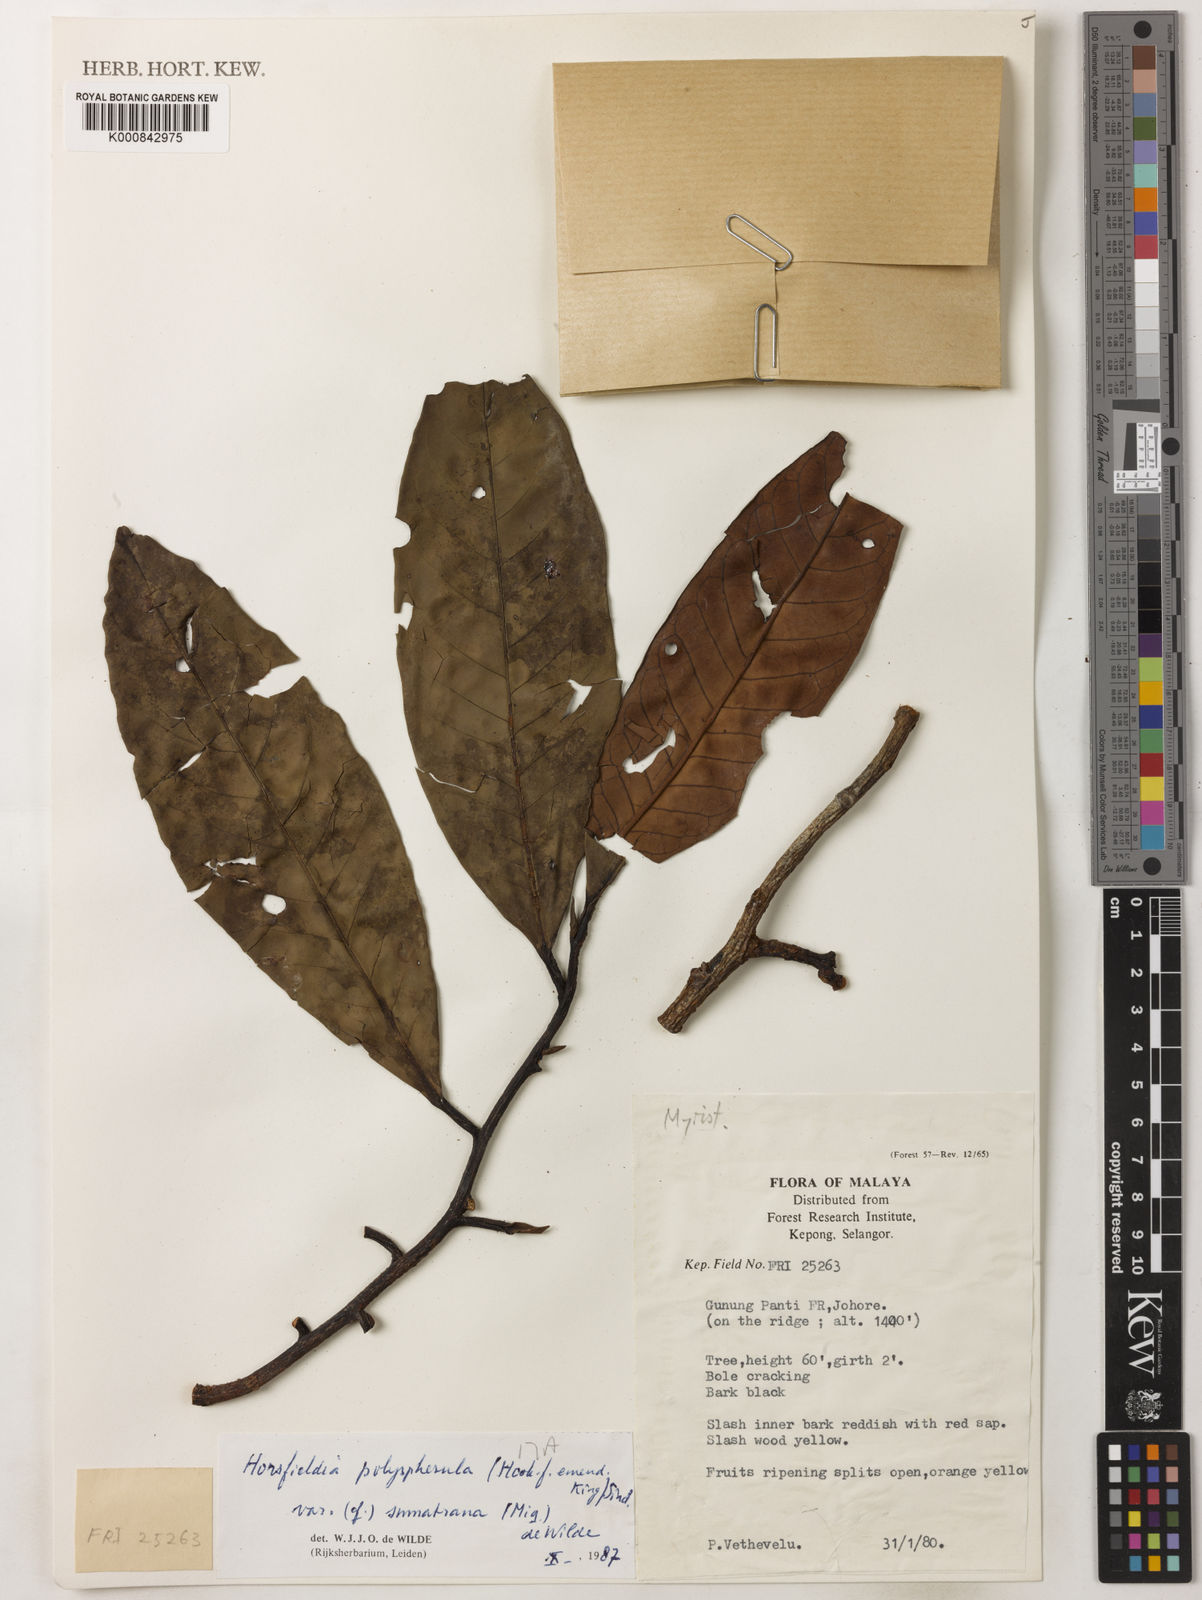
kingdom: Plantae
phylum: Tracheophyta
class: Magnoliopsida
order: Magnoliales
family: Myristicaceae
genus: Horsfieldia
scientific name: Horsfieldia polyspherula
